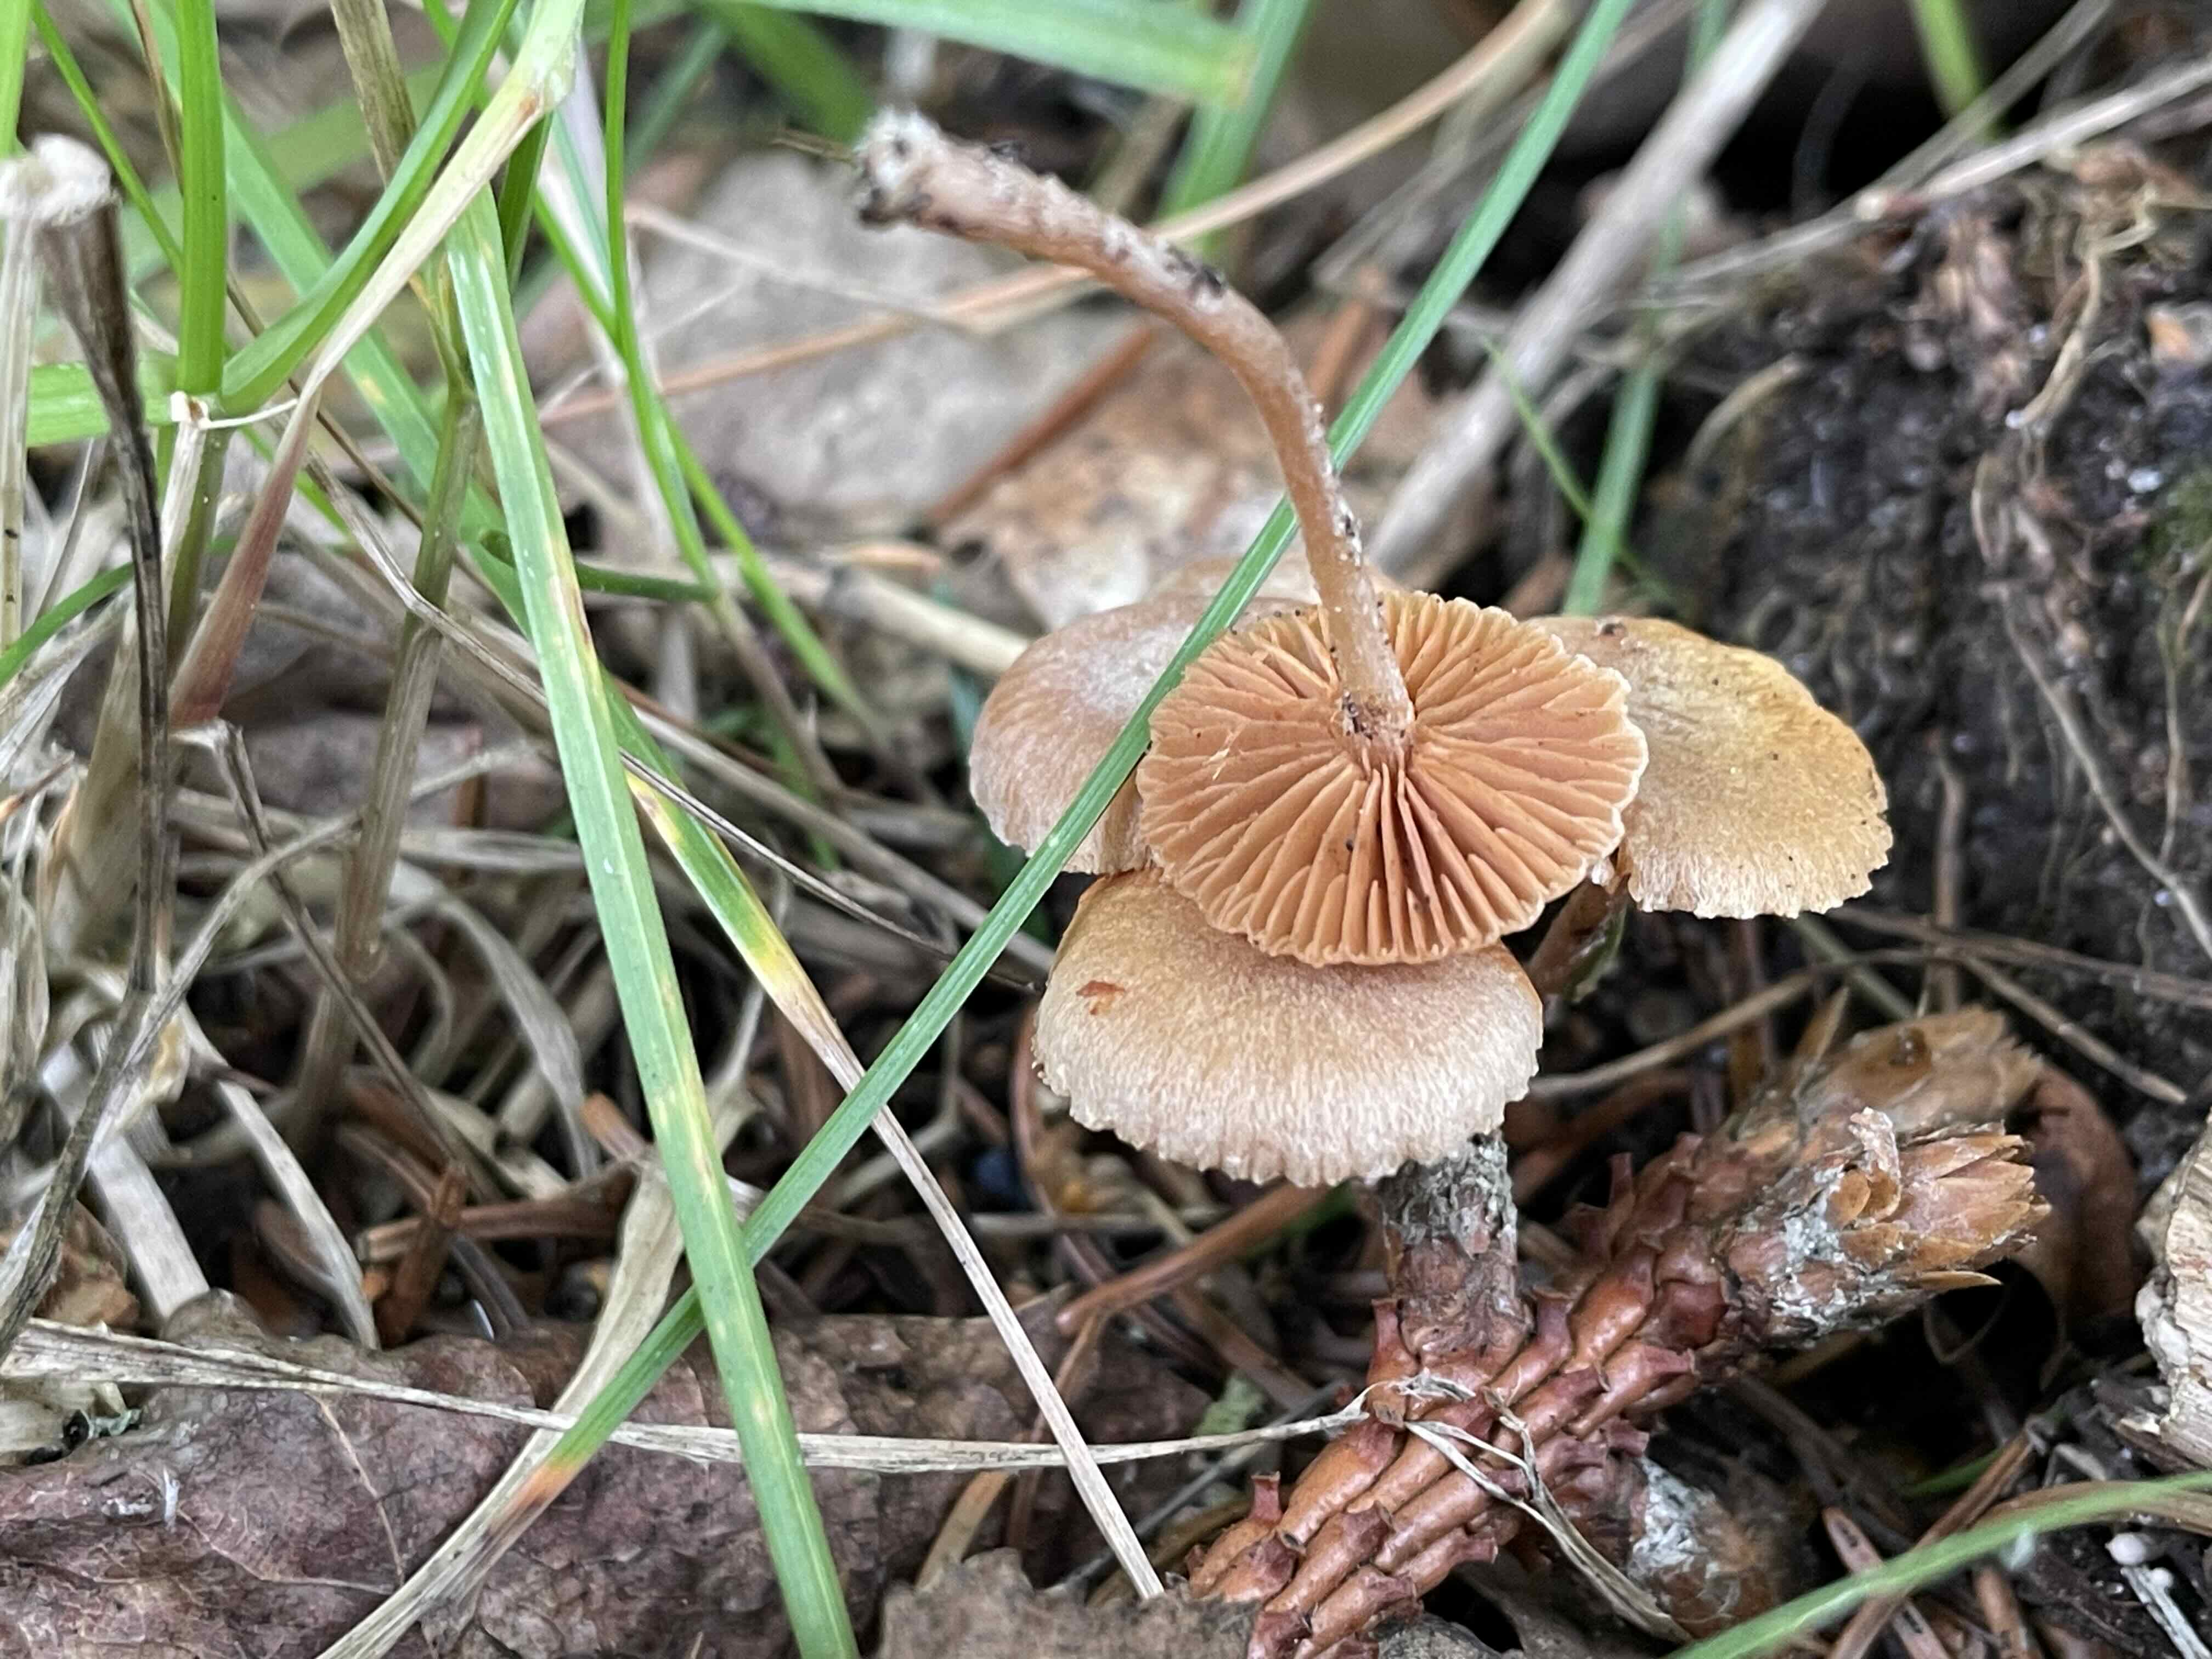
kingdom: Fungi
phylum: Basidiomycota
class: Agaricomycetes
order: Agaricales
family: Tubariaceae
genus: Tubaria
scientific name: Tubaria furfuracea
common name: kliddet fnughat
